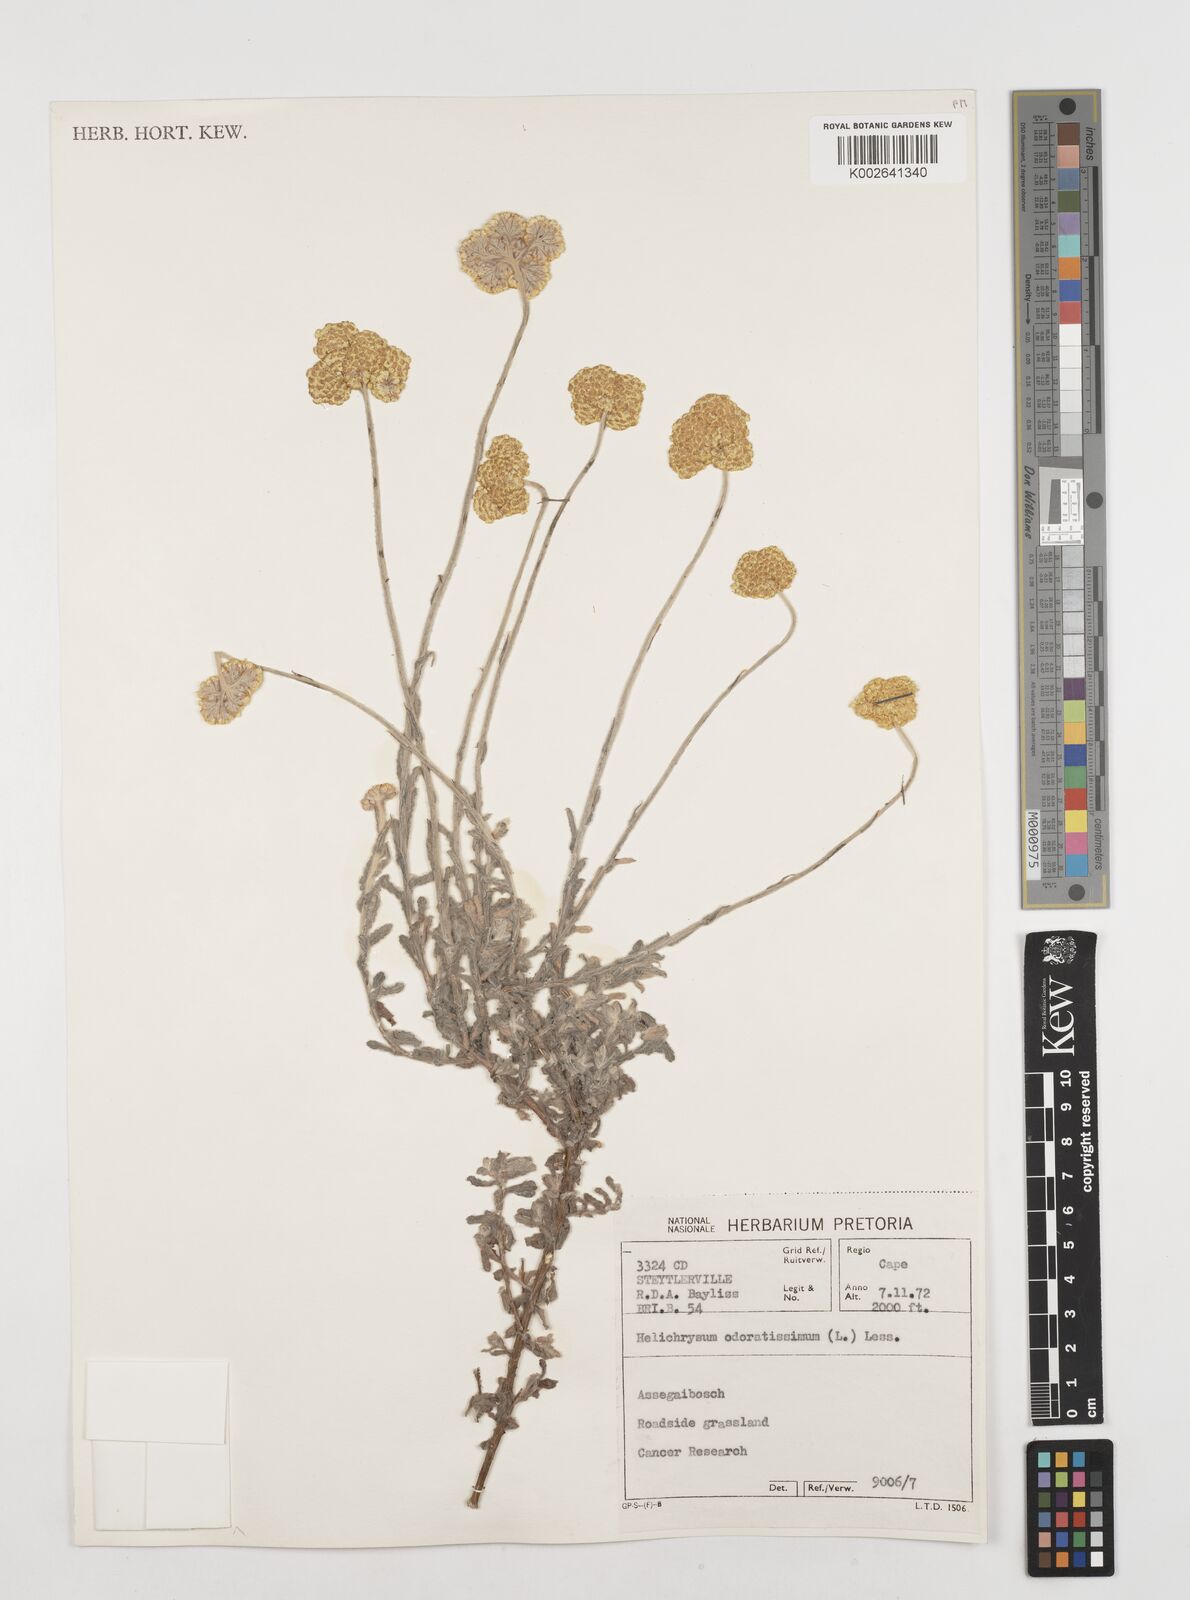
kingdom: Plantae
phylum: Tracheophyta
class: Magnoliopsida
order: Asterales
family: Asteraceae
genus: Helichrysum
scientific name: Helichrysum odoratissimum
